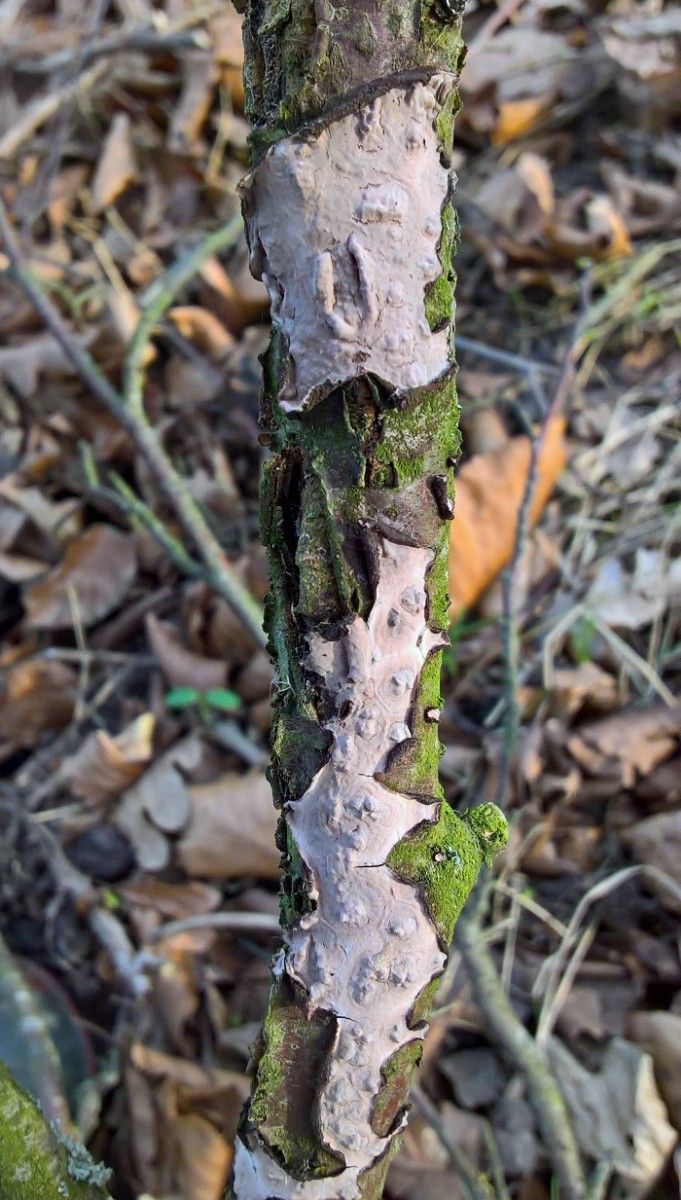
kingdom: Fungi
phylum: Basidiomycota
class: Agaricomycetes
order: Russulales
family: Peniophoraceae
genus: Peniophora
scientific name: Peniophora quercina
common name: ege-voksskind
